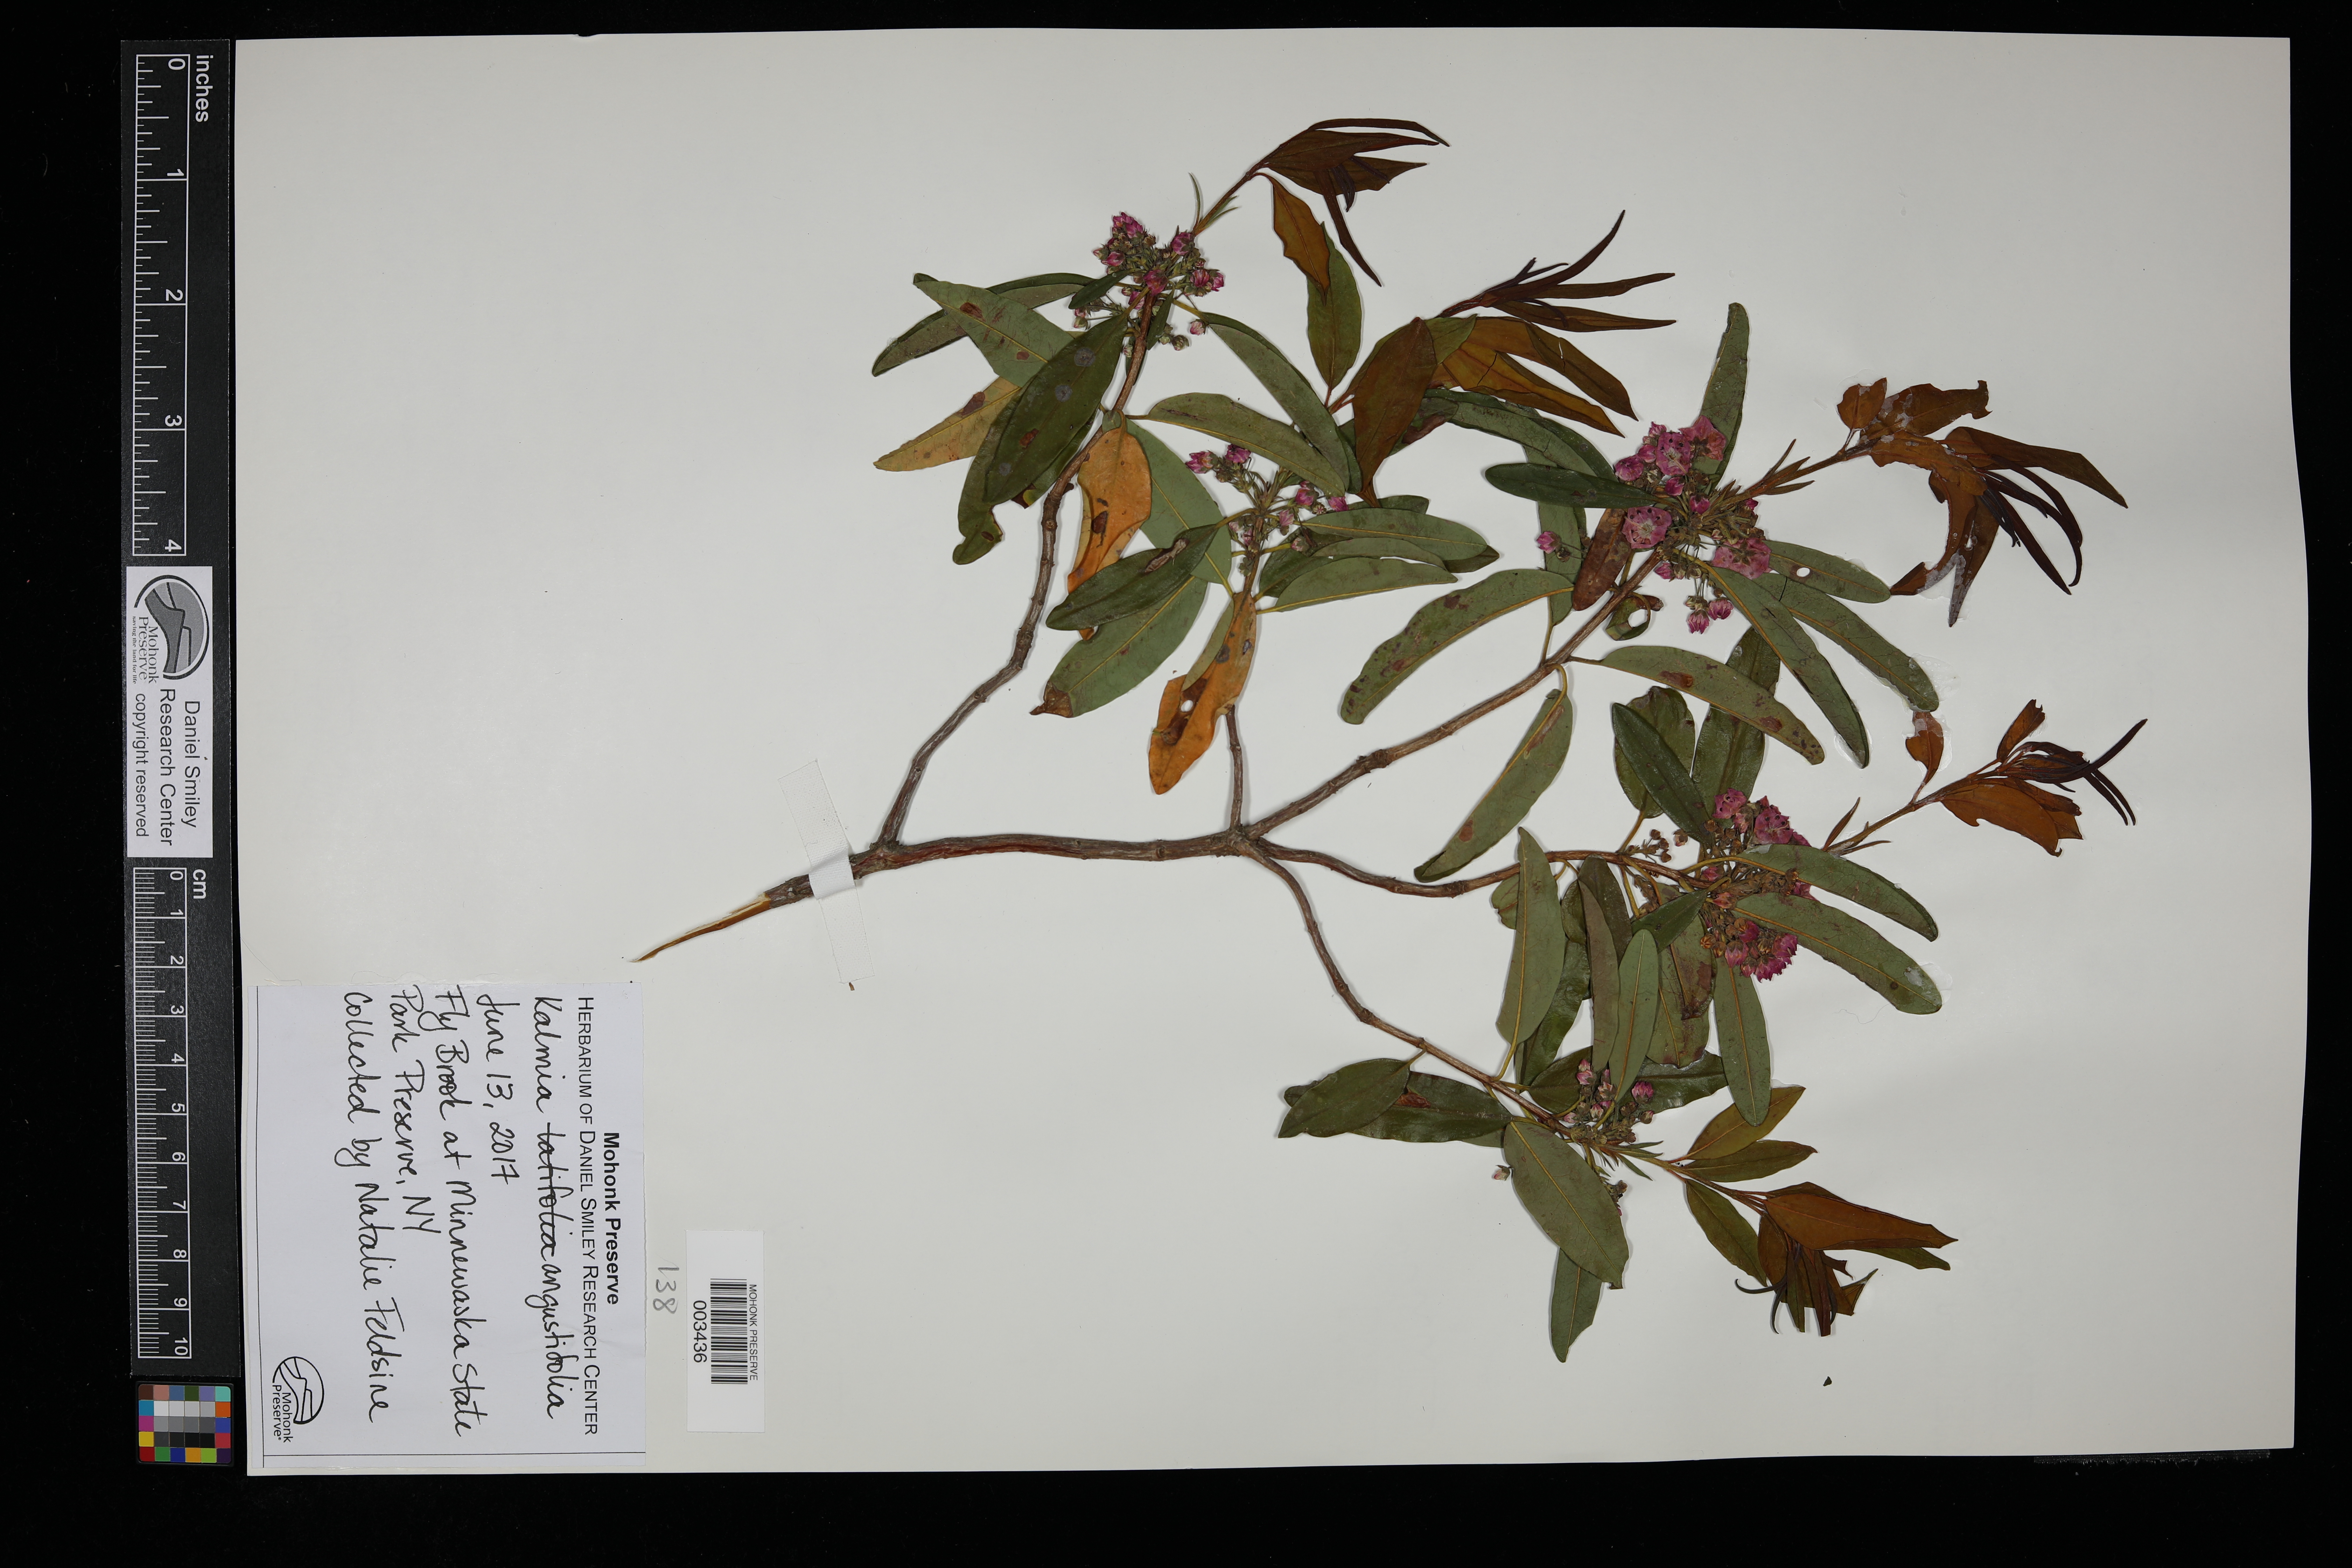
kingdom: Plantae
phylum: Tracheophyta
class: Magnoliopsida
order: Ericales
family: Ericaceae
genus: Kalmia
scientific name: Kalmia angustifolia
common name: Sheep-laurel
